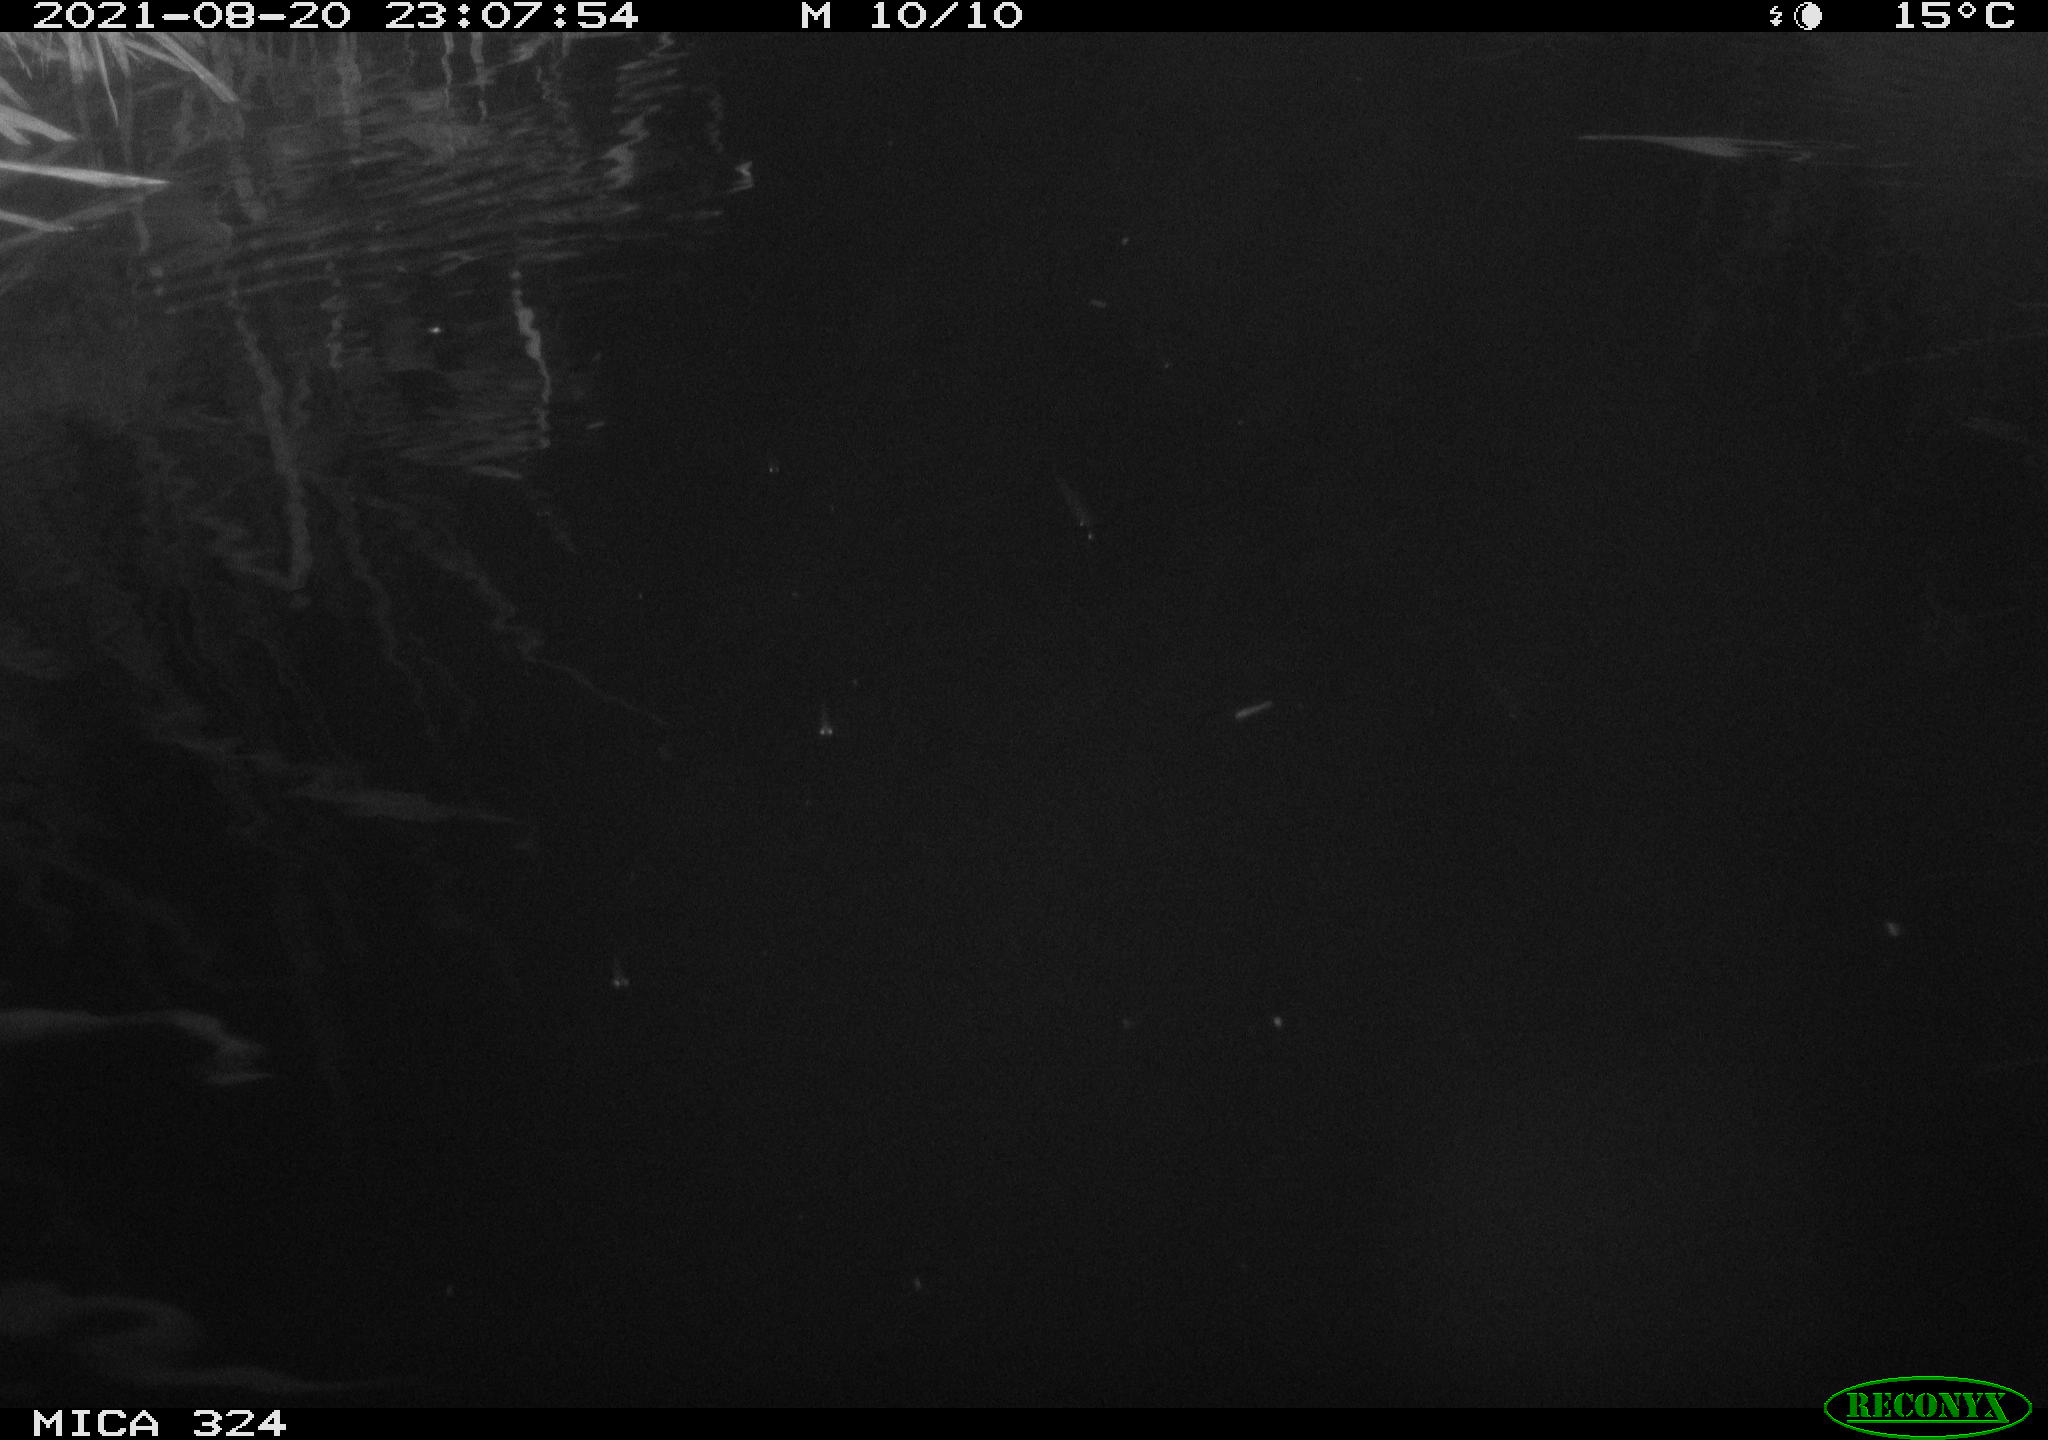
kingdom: Animalia
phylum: Chordata
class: Mammalia
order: Rodentia
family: Cricetidae
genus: Ondatra
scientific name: Ondatra zibethicus
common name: Muskrat
